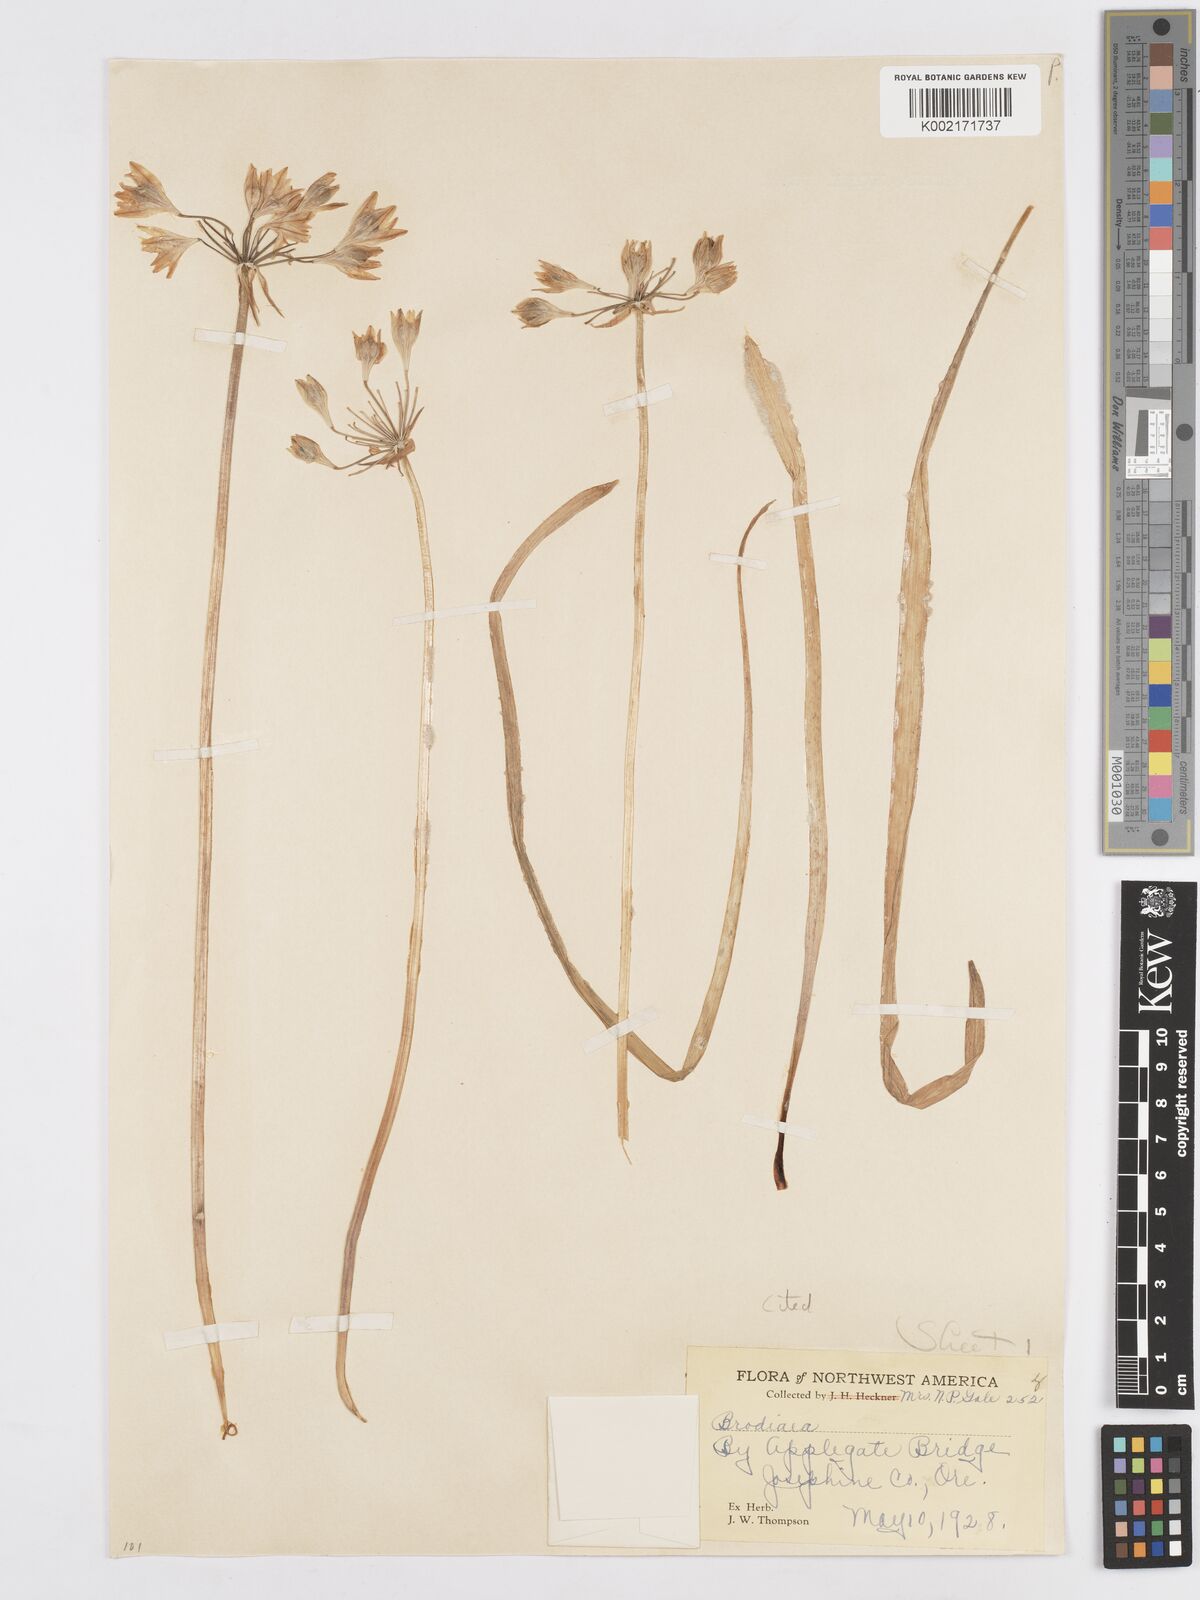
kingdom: Plantae
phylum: Tracheophyta
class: Liliopsida
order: Asparagales
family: Asparagaceae
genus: Triteleia
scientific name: Triteleia crocea
